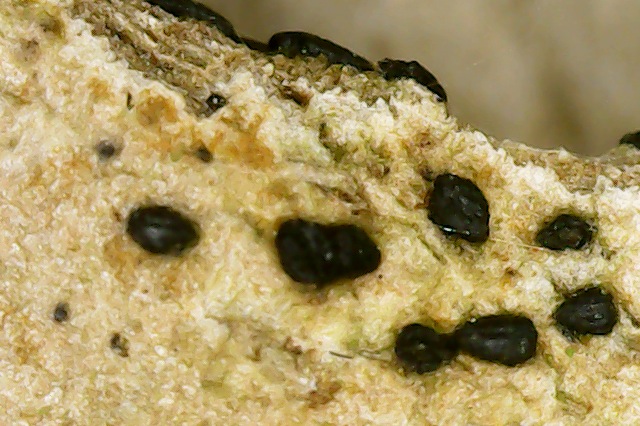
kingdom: Fungi
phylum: Ascomycota
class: Dothideomycetes
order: Hysteriales
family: Hysteriaceae
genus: Hysterium
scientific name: Hysterium
